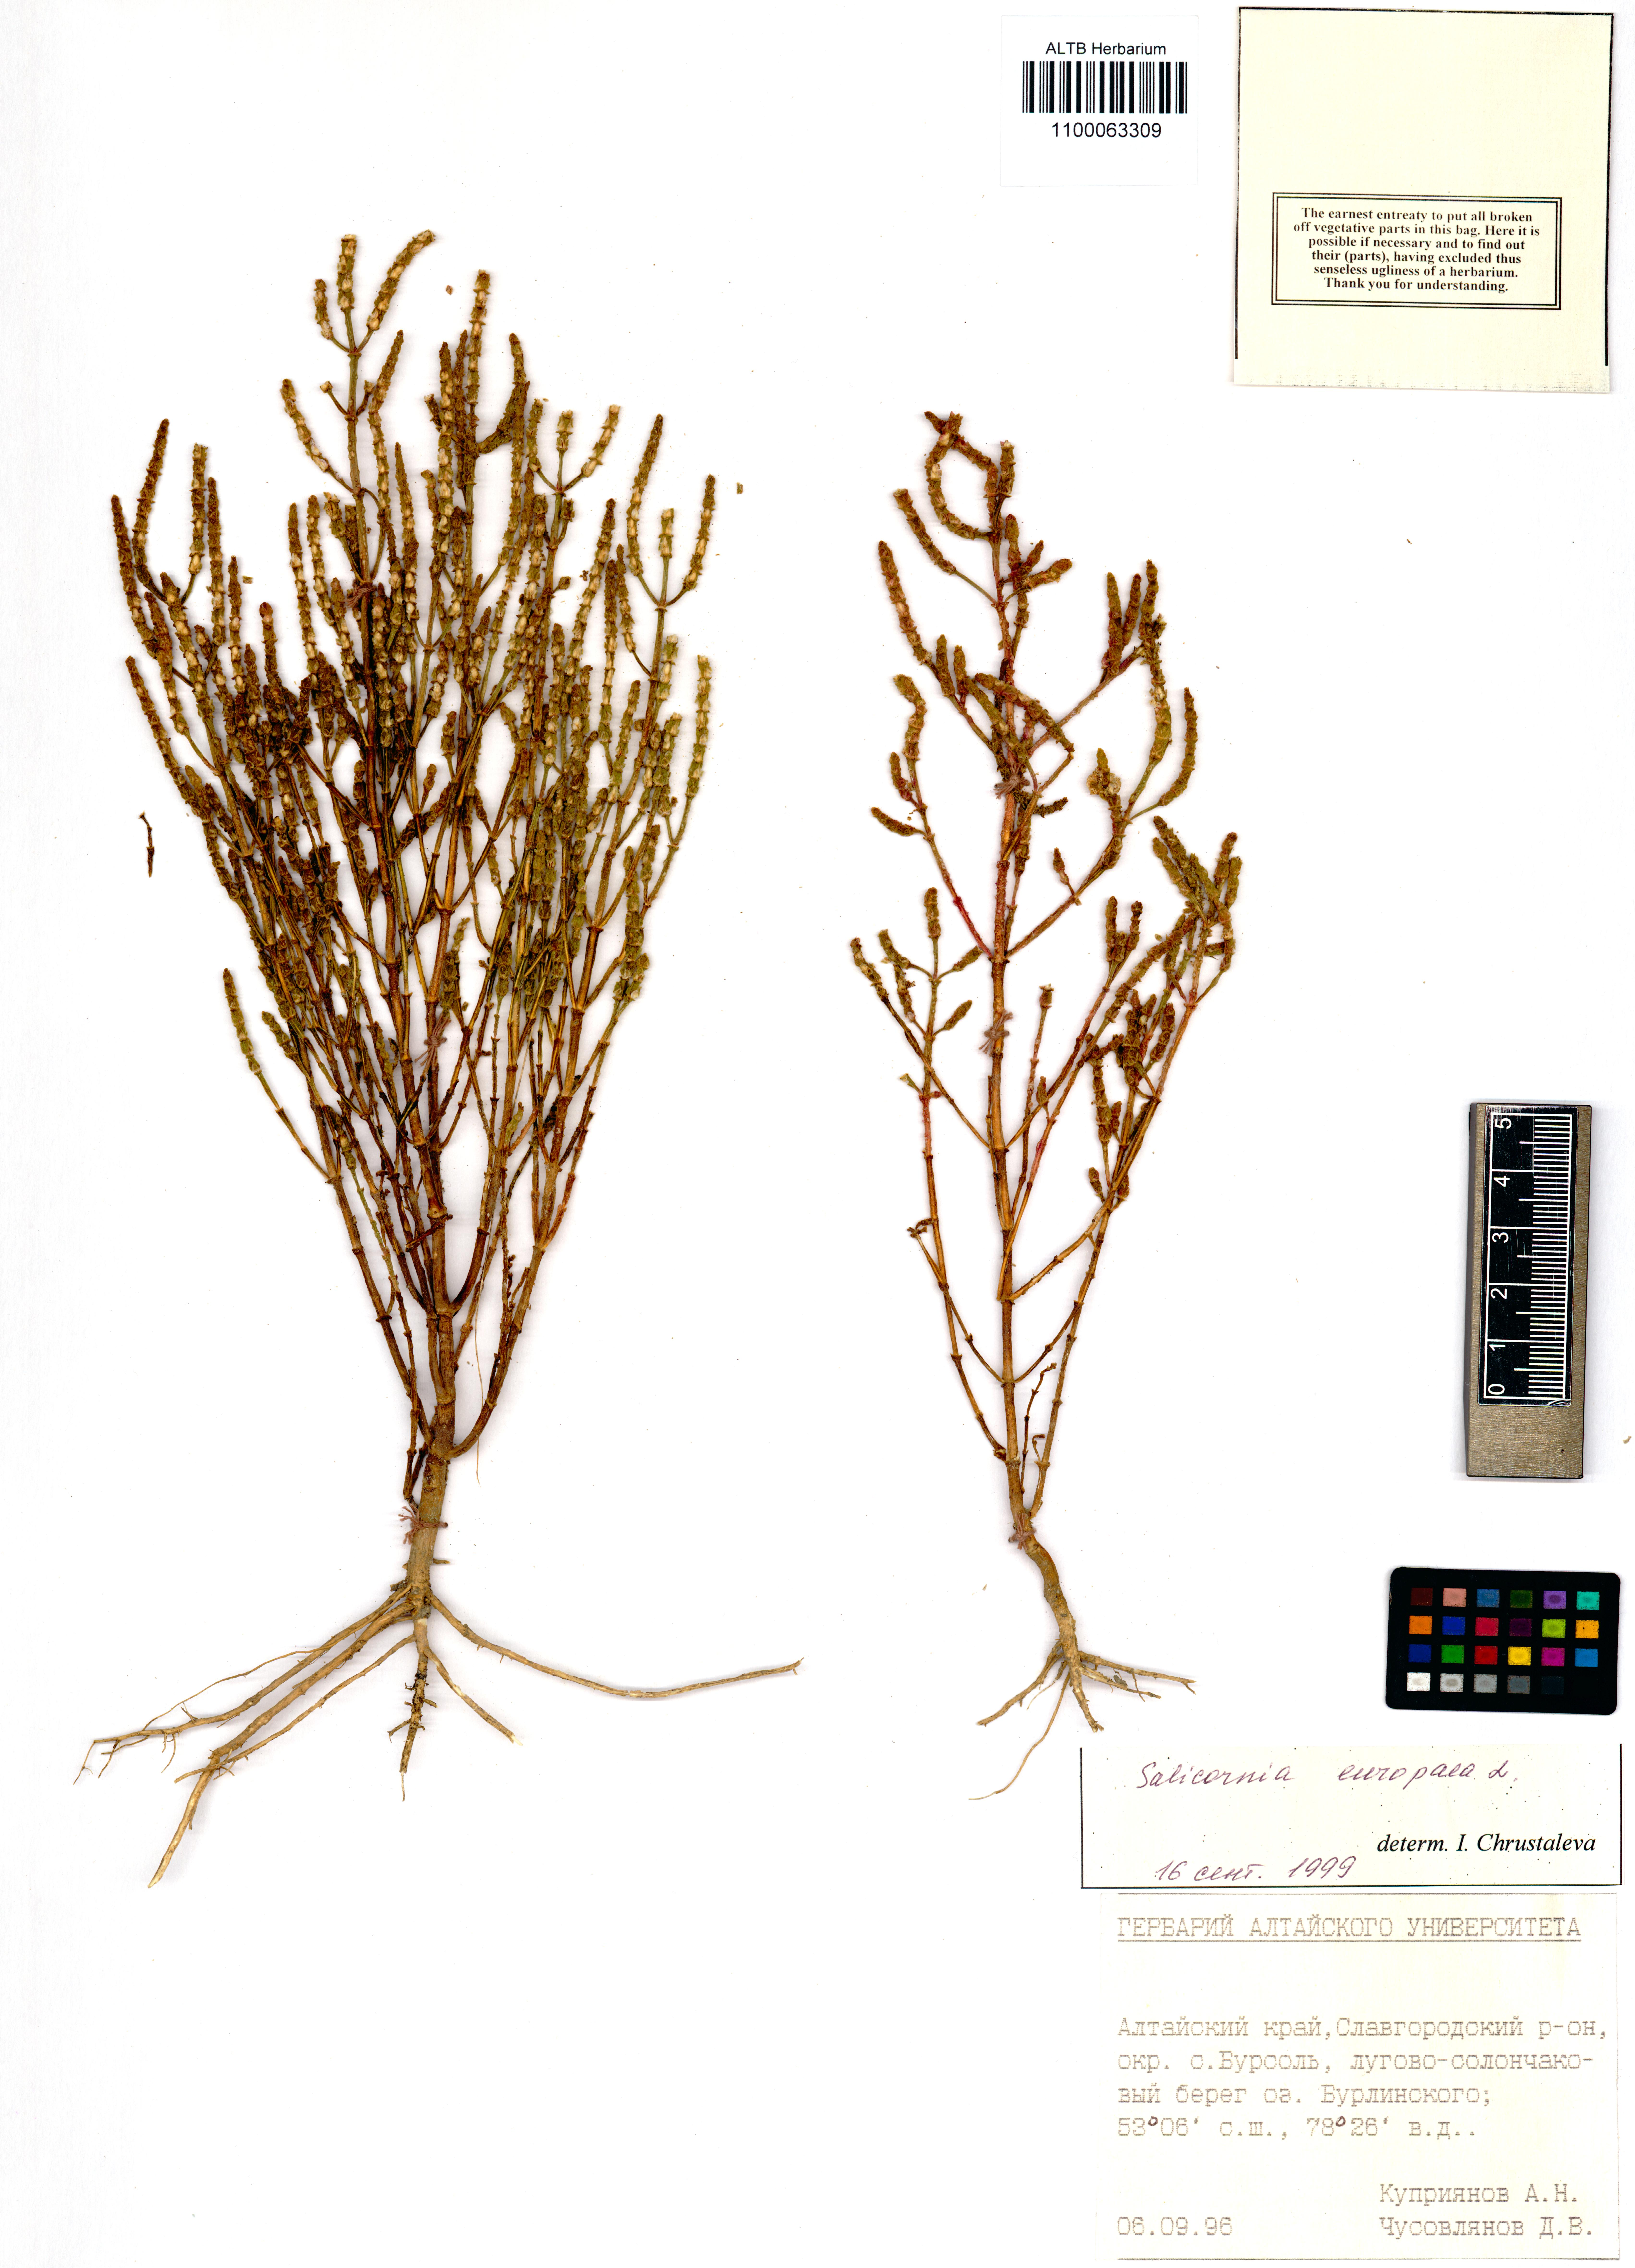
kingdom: Plantae
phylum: Tracheophyta
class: Magnoliopsida
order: Caryophyllales
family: Amaranthaceae
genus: Salicornia
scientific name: Salicornia europaea
